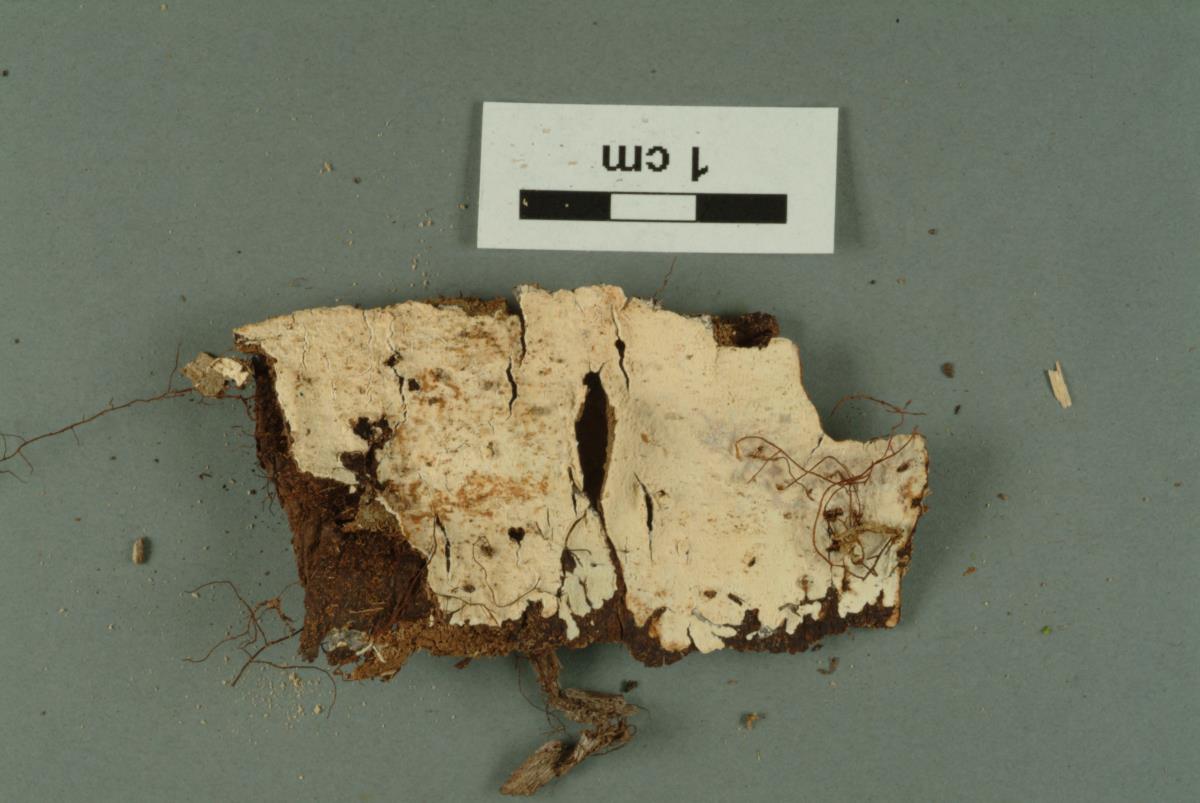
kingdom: Fungi
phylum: Basidiomycota
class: Agaricomycetes
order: Russulales
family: Stereaceae
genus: Gloeocystidiellum
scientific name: Gloeocystidiellum inconstans
